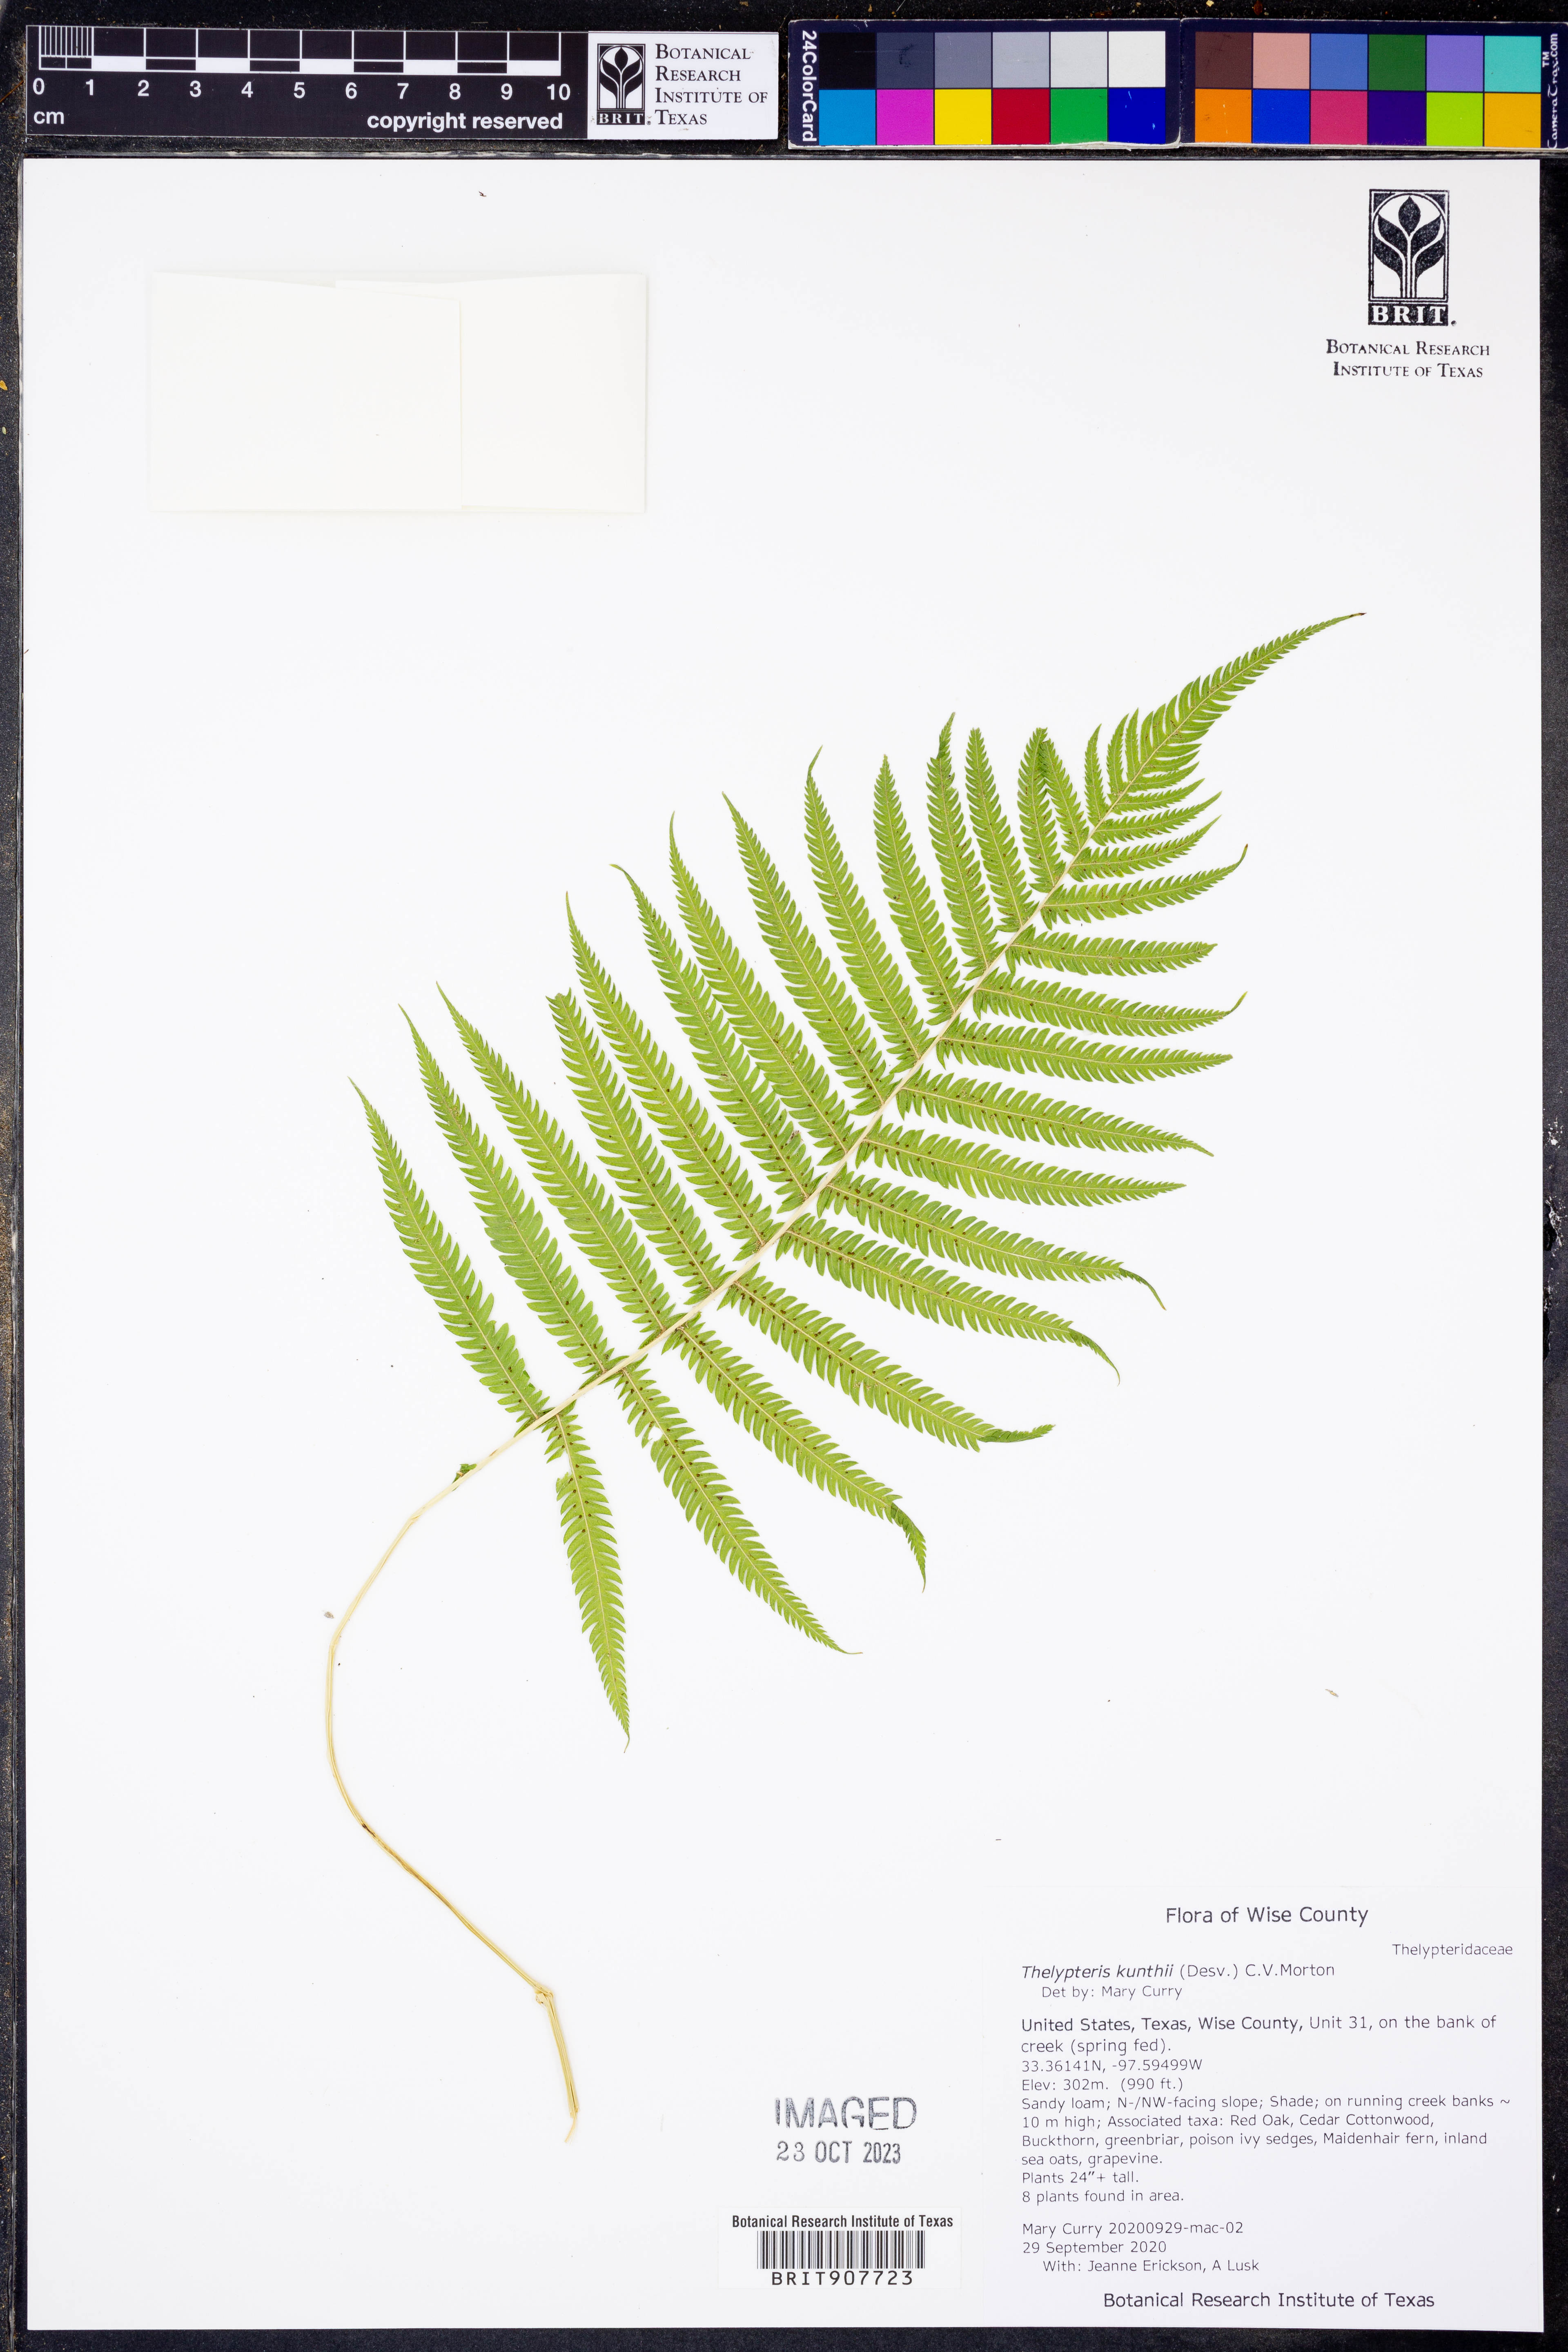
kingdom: Plantae
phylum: Tracheophyta
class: Polypodiopsida
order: Polypodiales
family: Thelypteridaceae
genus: Pelazoneuron
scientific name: Pelazoneuron kunthii
